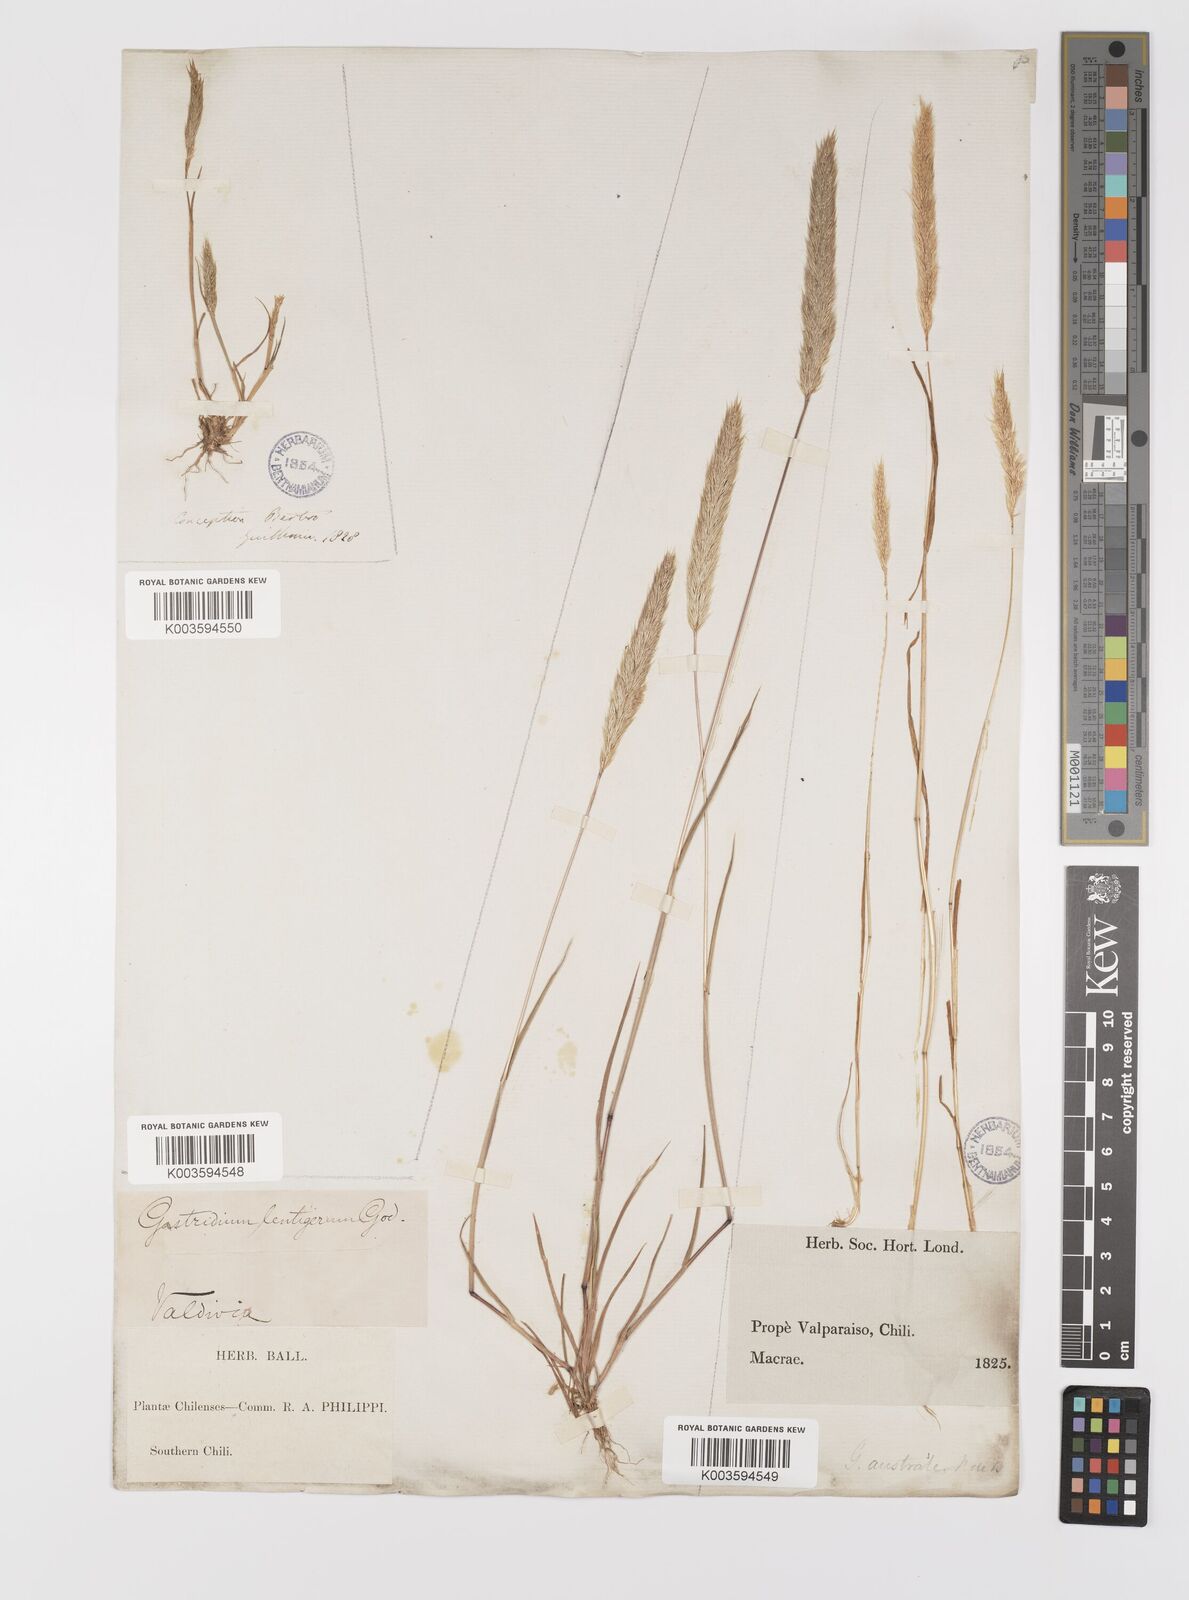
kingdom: Plantae
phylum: Tracheophyta
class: Liliopsida
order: Poales
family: Poaceae
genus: Gastridium
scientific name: Gastridium phleoides
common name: Nit grass
